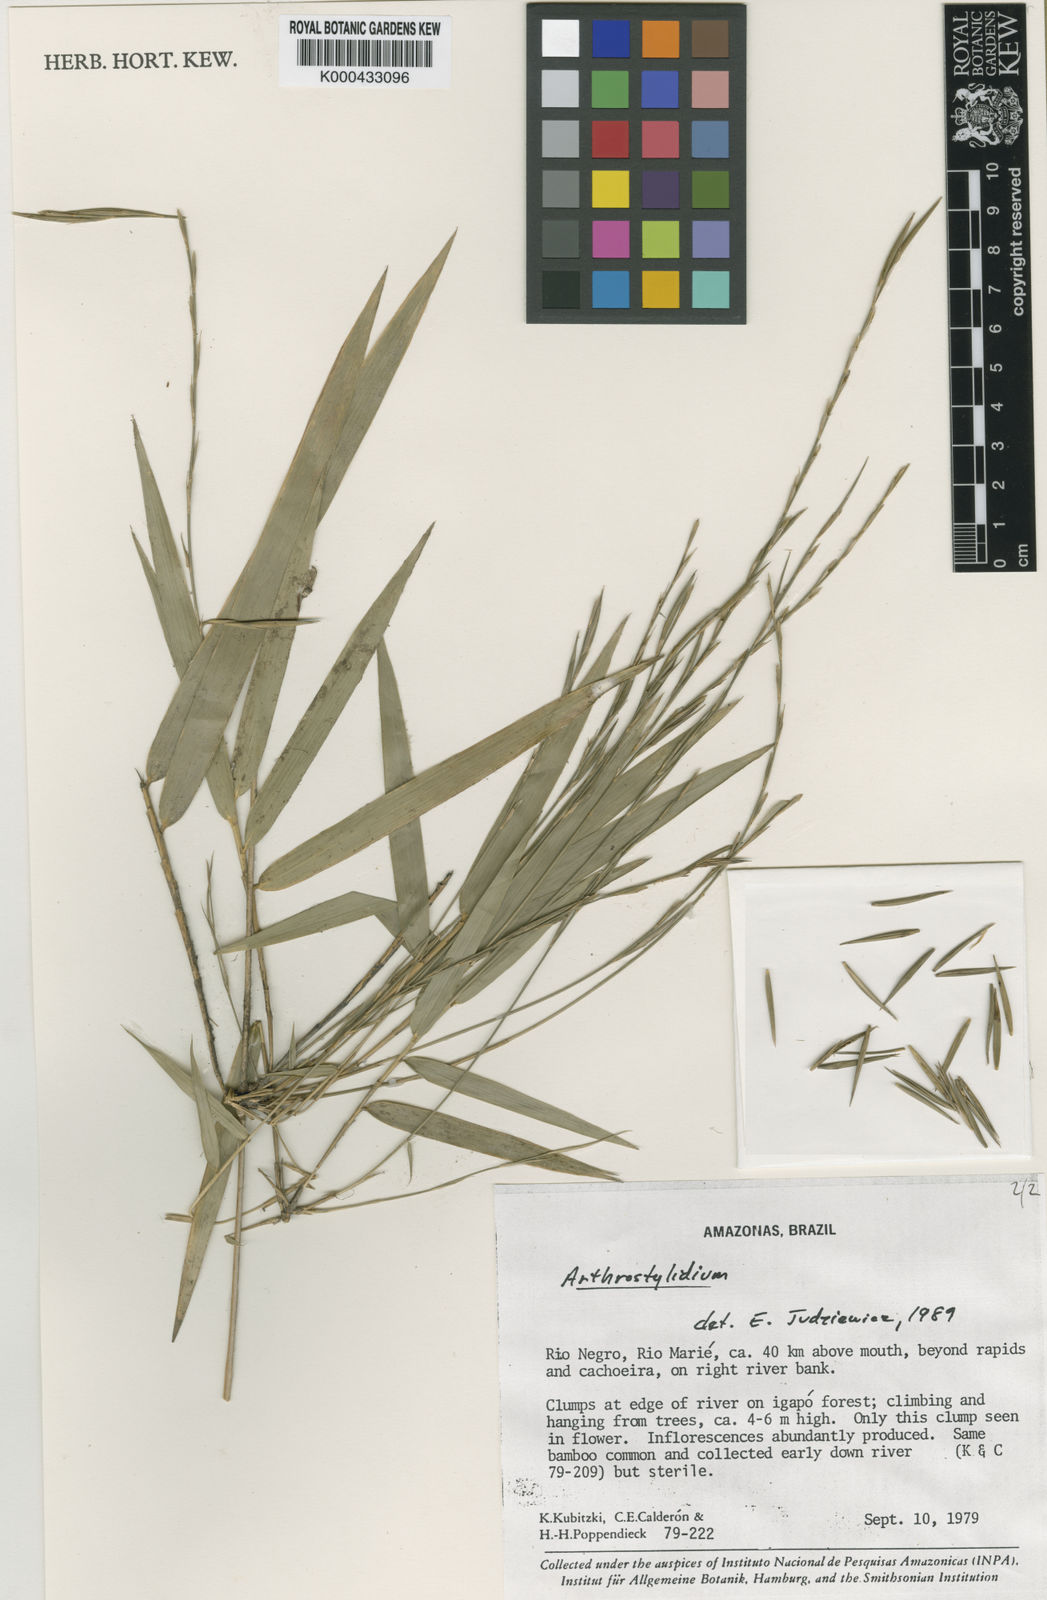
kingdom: Plantae
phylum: Tracheophyta
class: Liliopsida
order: Poales
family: Poaceae
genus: Atractantha
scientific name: Atractantha amazonica
